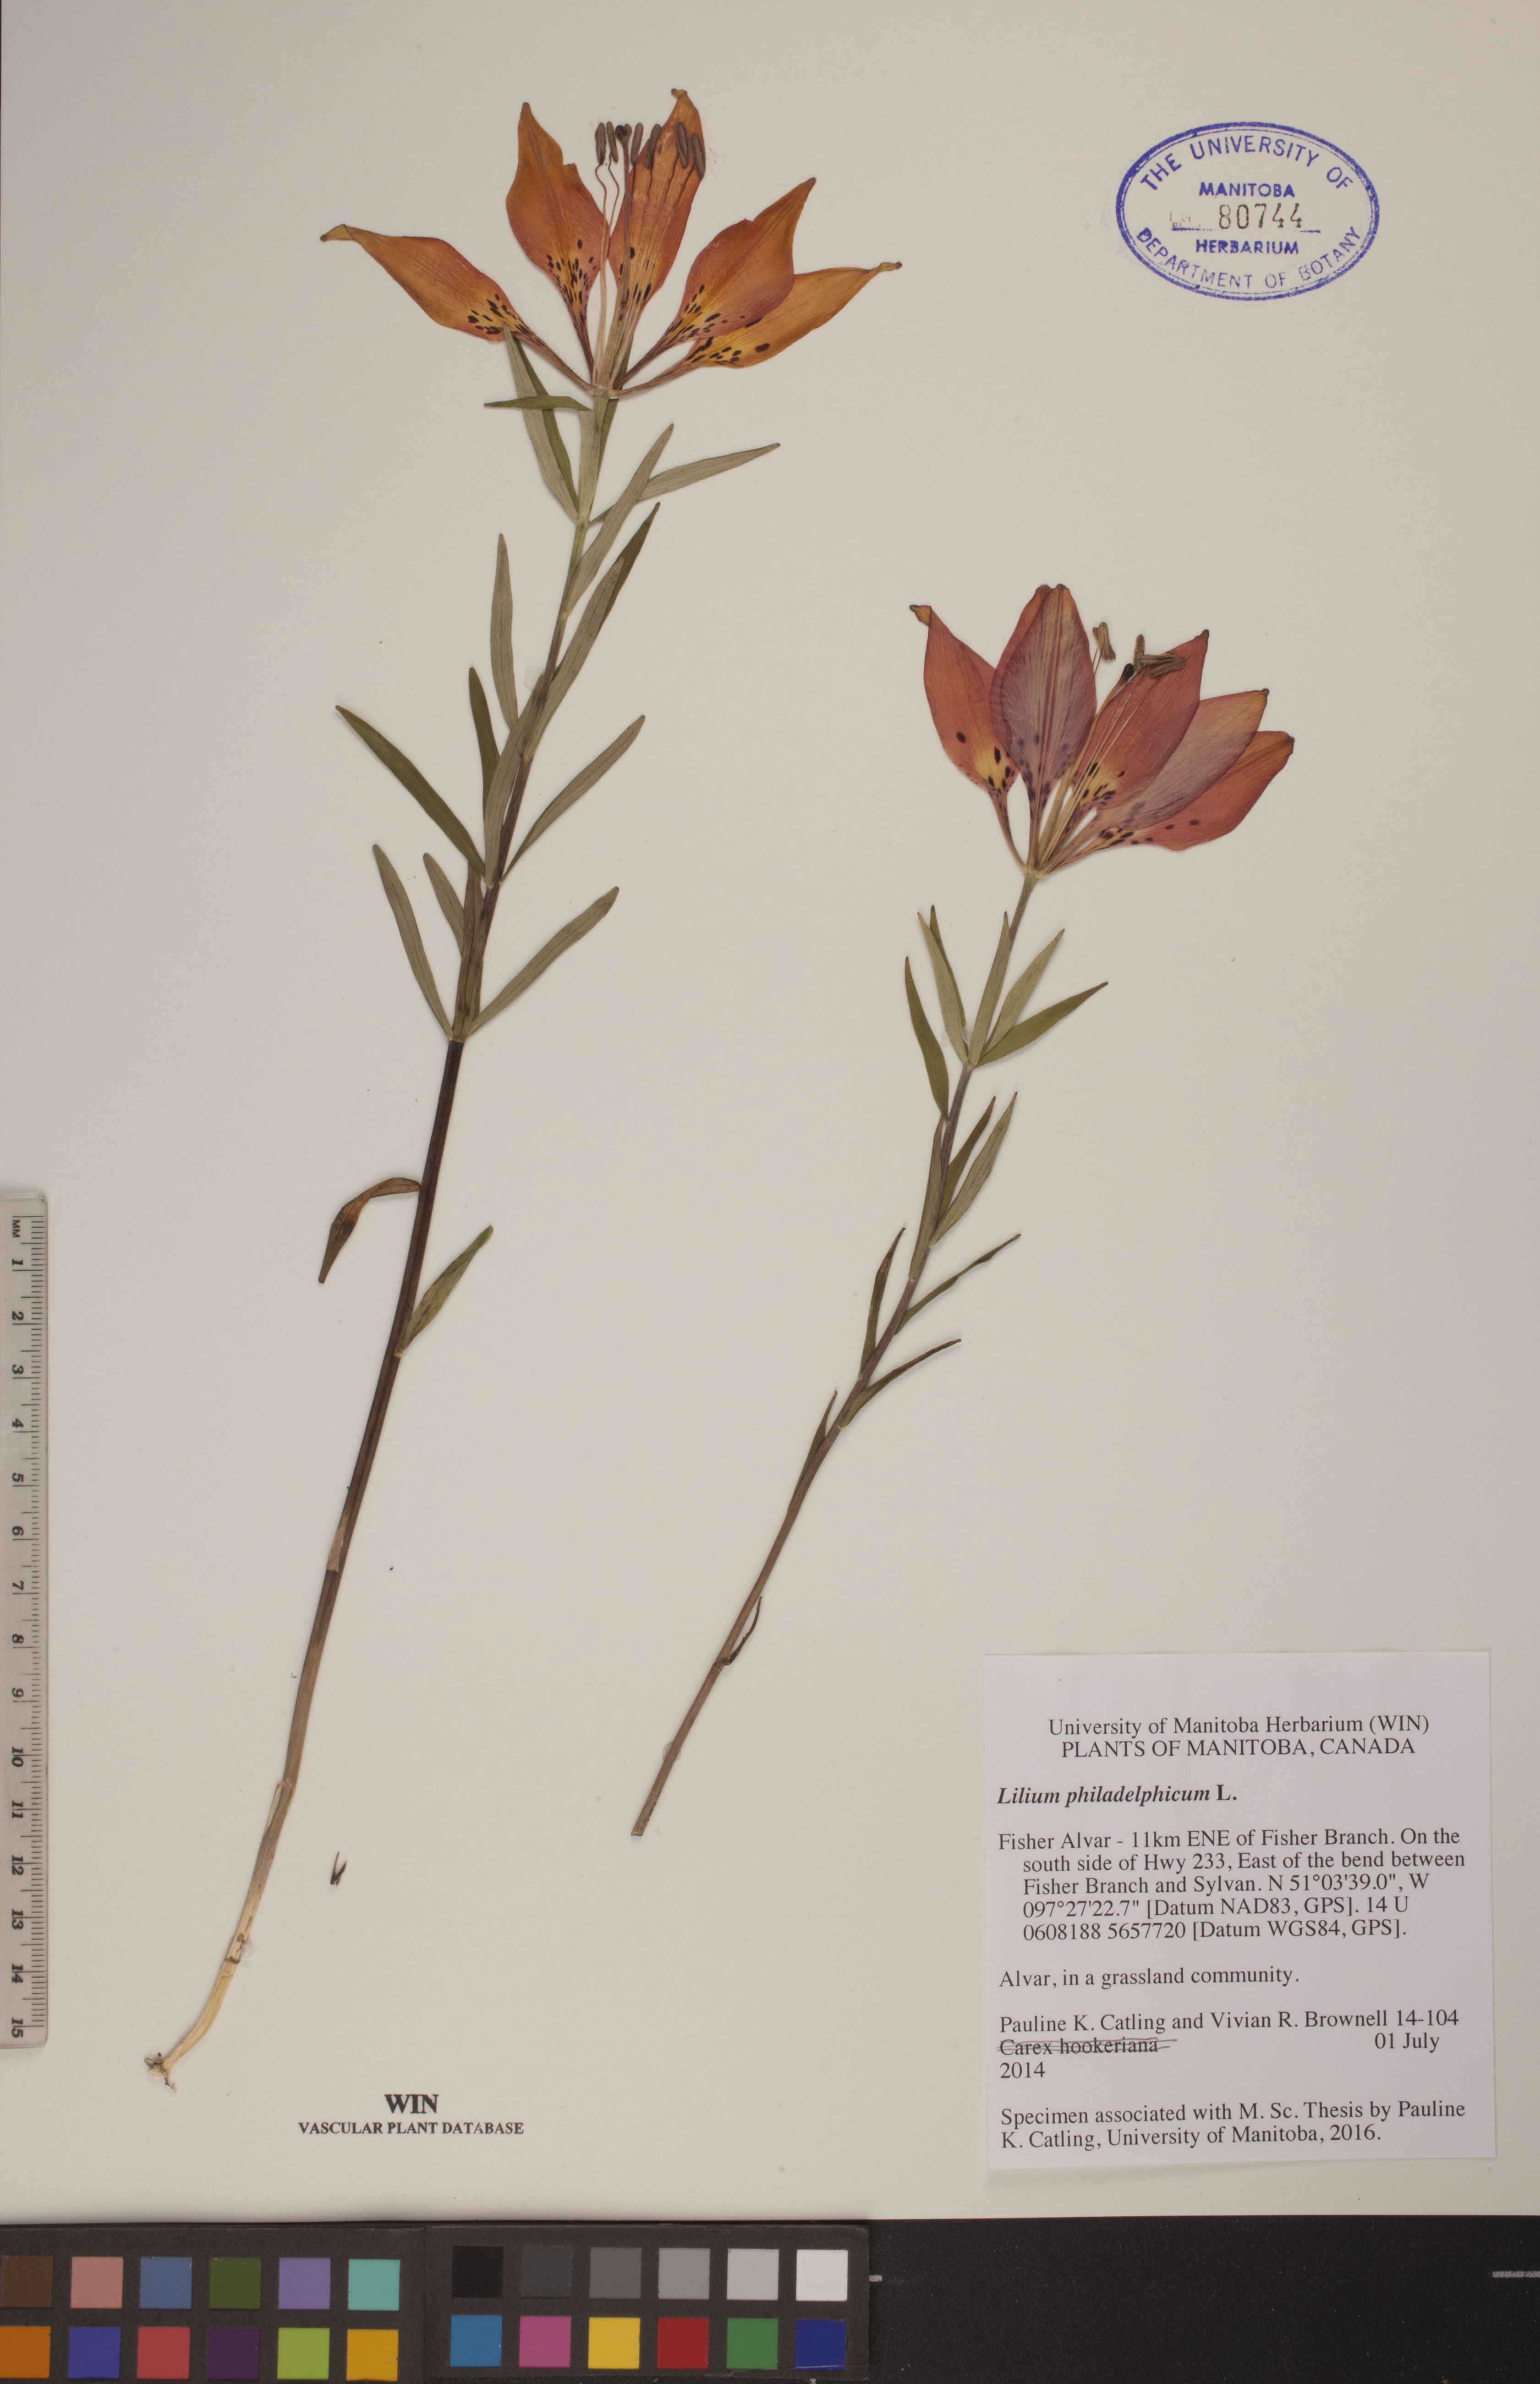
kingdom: Plantae
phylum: Tracheophyta
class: Liliopsida
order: Liliales
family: Liliaceae
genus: Lilium
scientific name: Lilium philadelphicum
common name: Red lily
